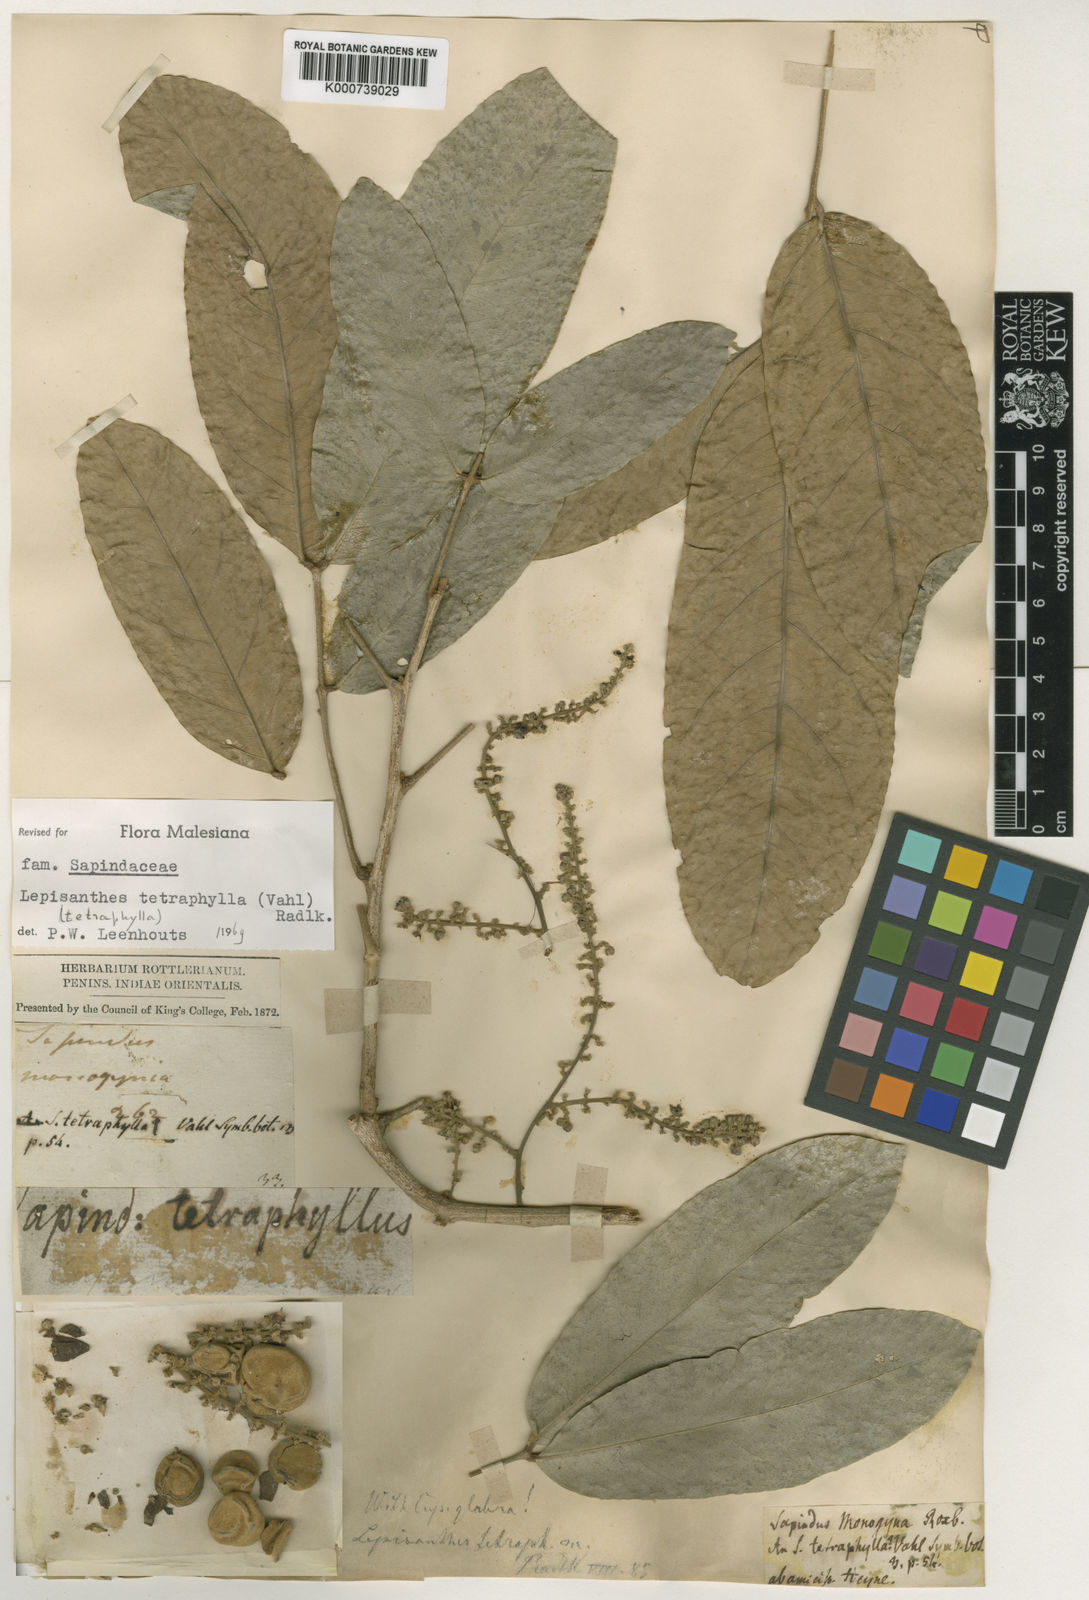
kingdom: Plantae
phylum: Tracheophyta
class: Magnoliopsida
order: Sapindales
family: Sapindaceae
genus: Lepisanthes
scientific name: Lepisanthes tetraphylla
